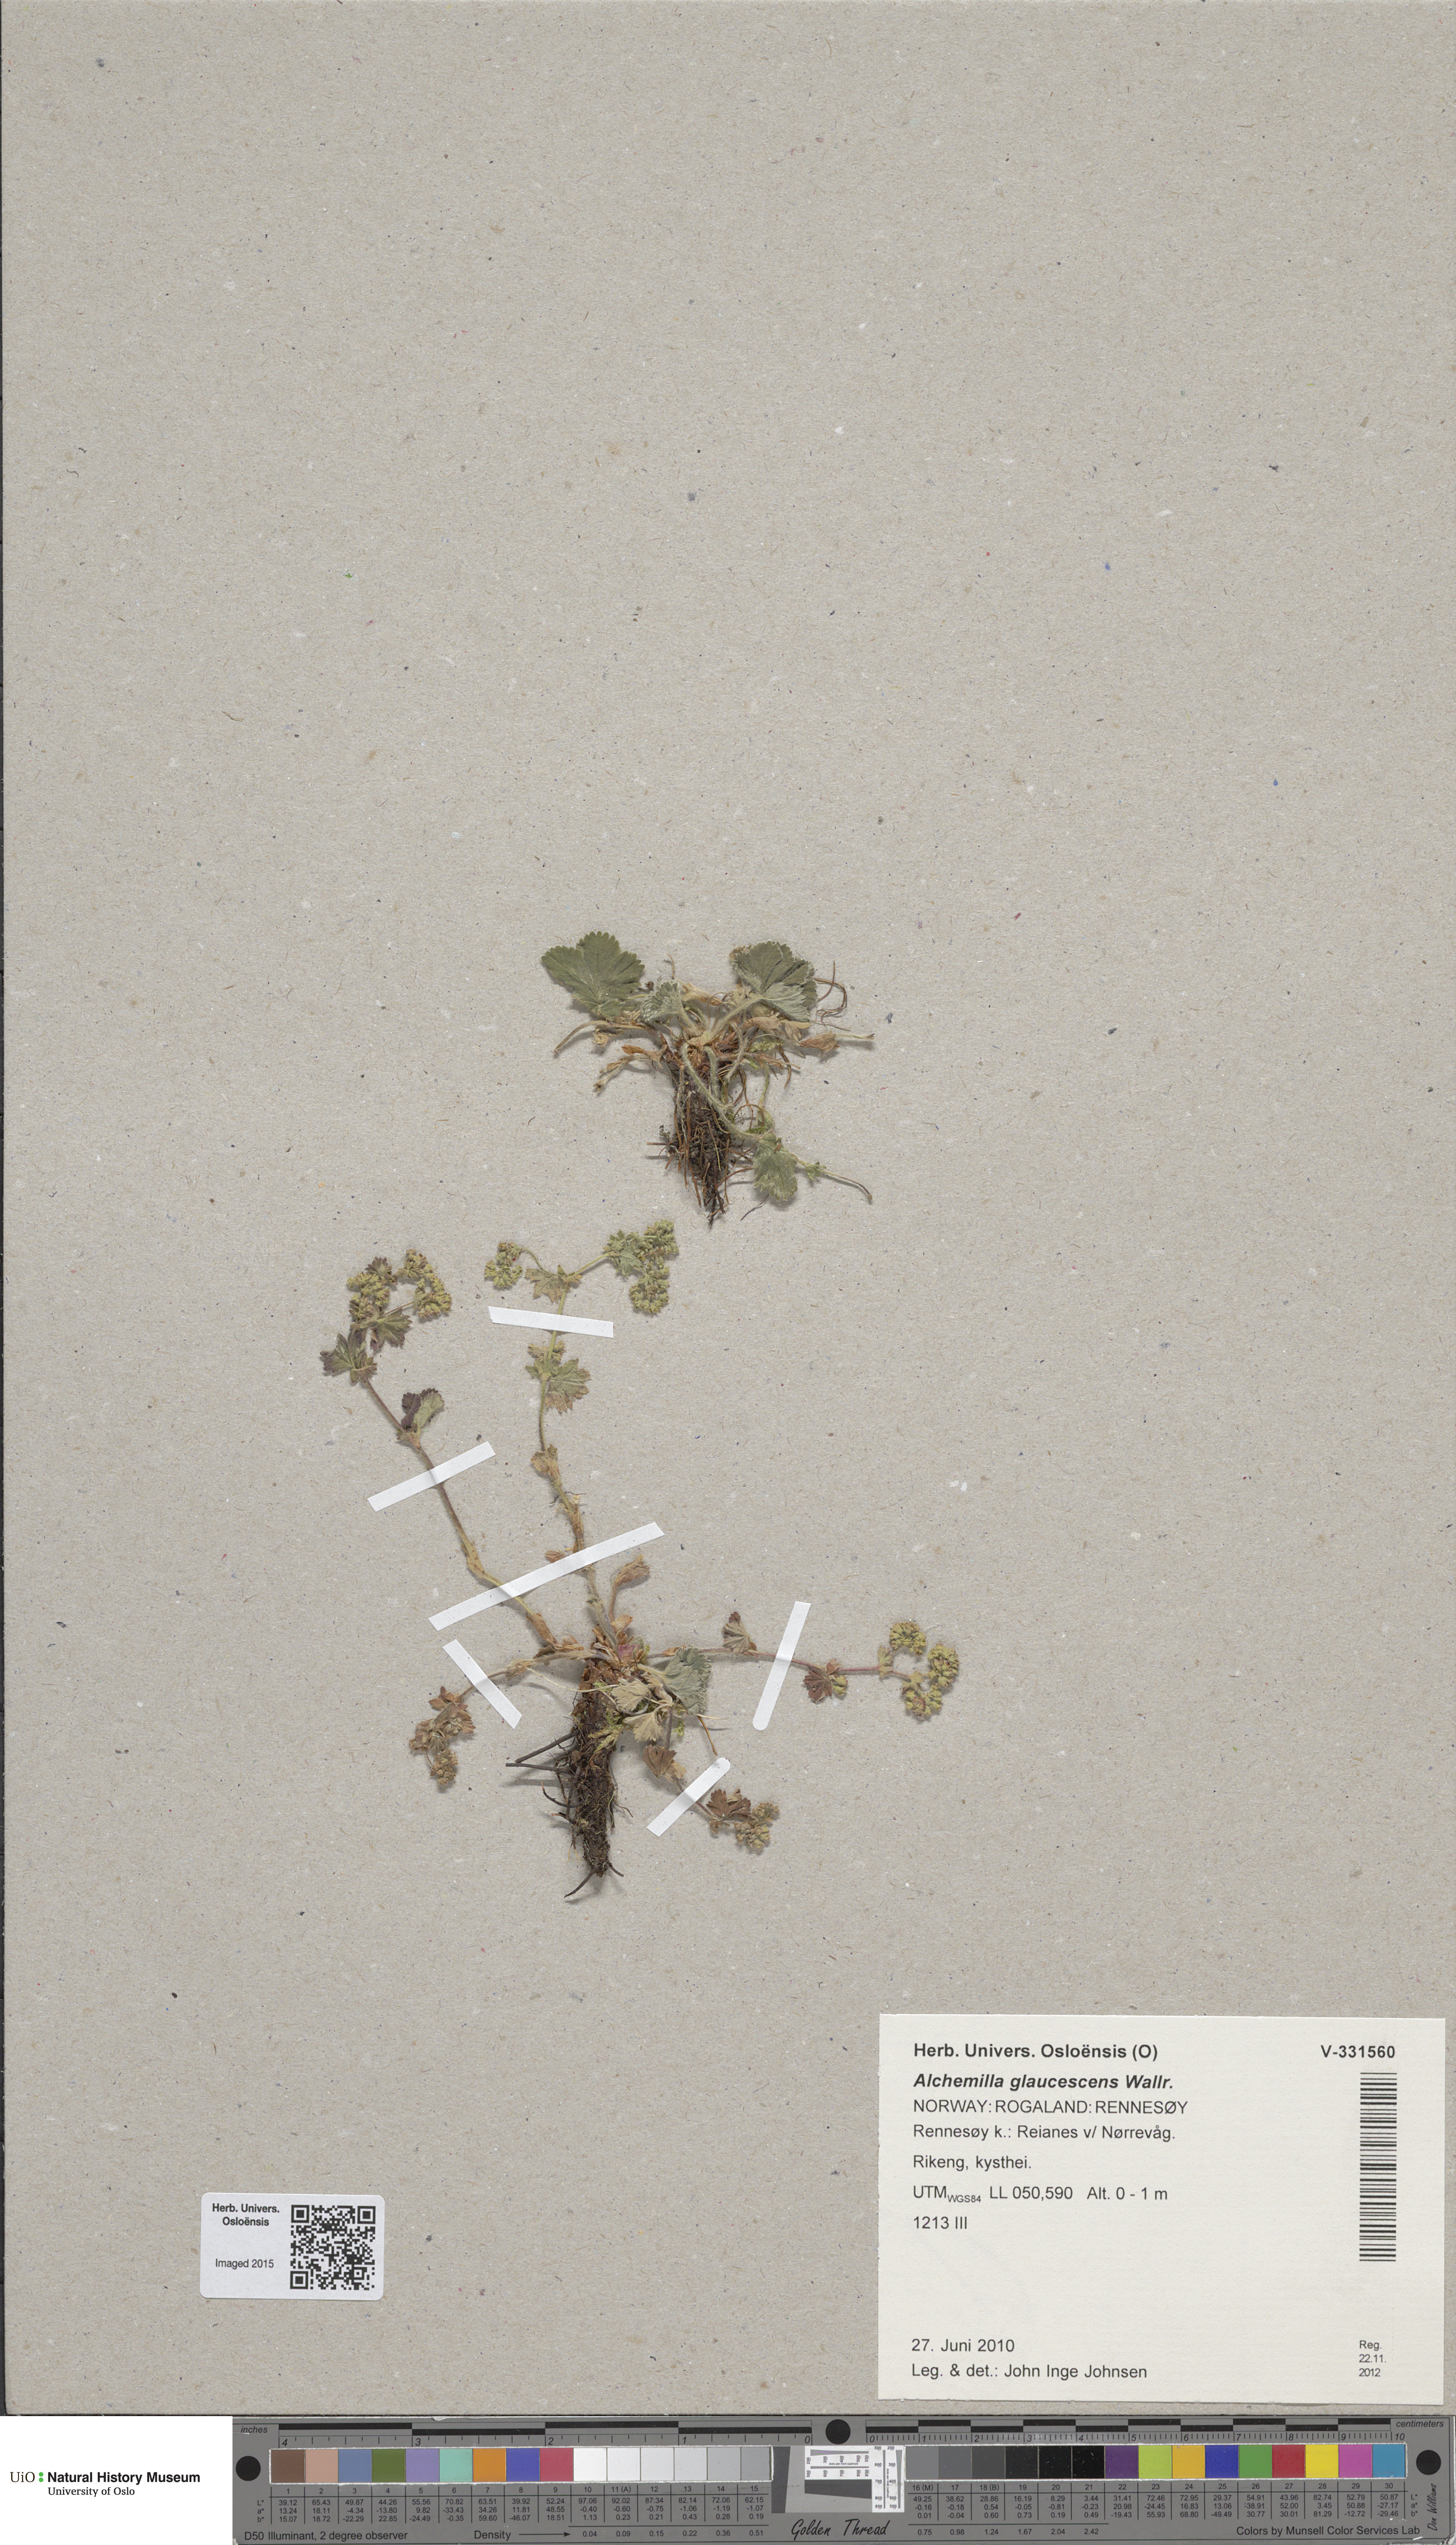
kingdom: Plantae
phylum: Tracheophyta
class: Magnoliopsida
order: Rosales
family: Rosaceae
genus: Alchemilla
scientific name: Alchemilla glaucescens
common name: Silky lady's mantle
